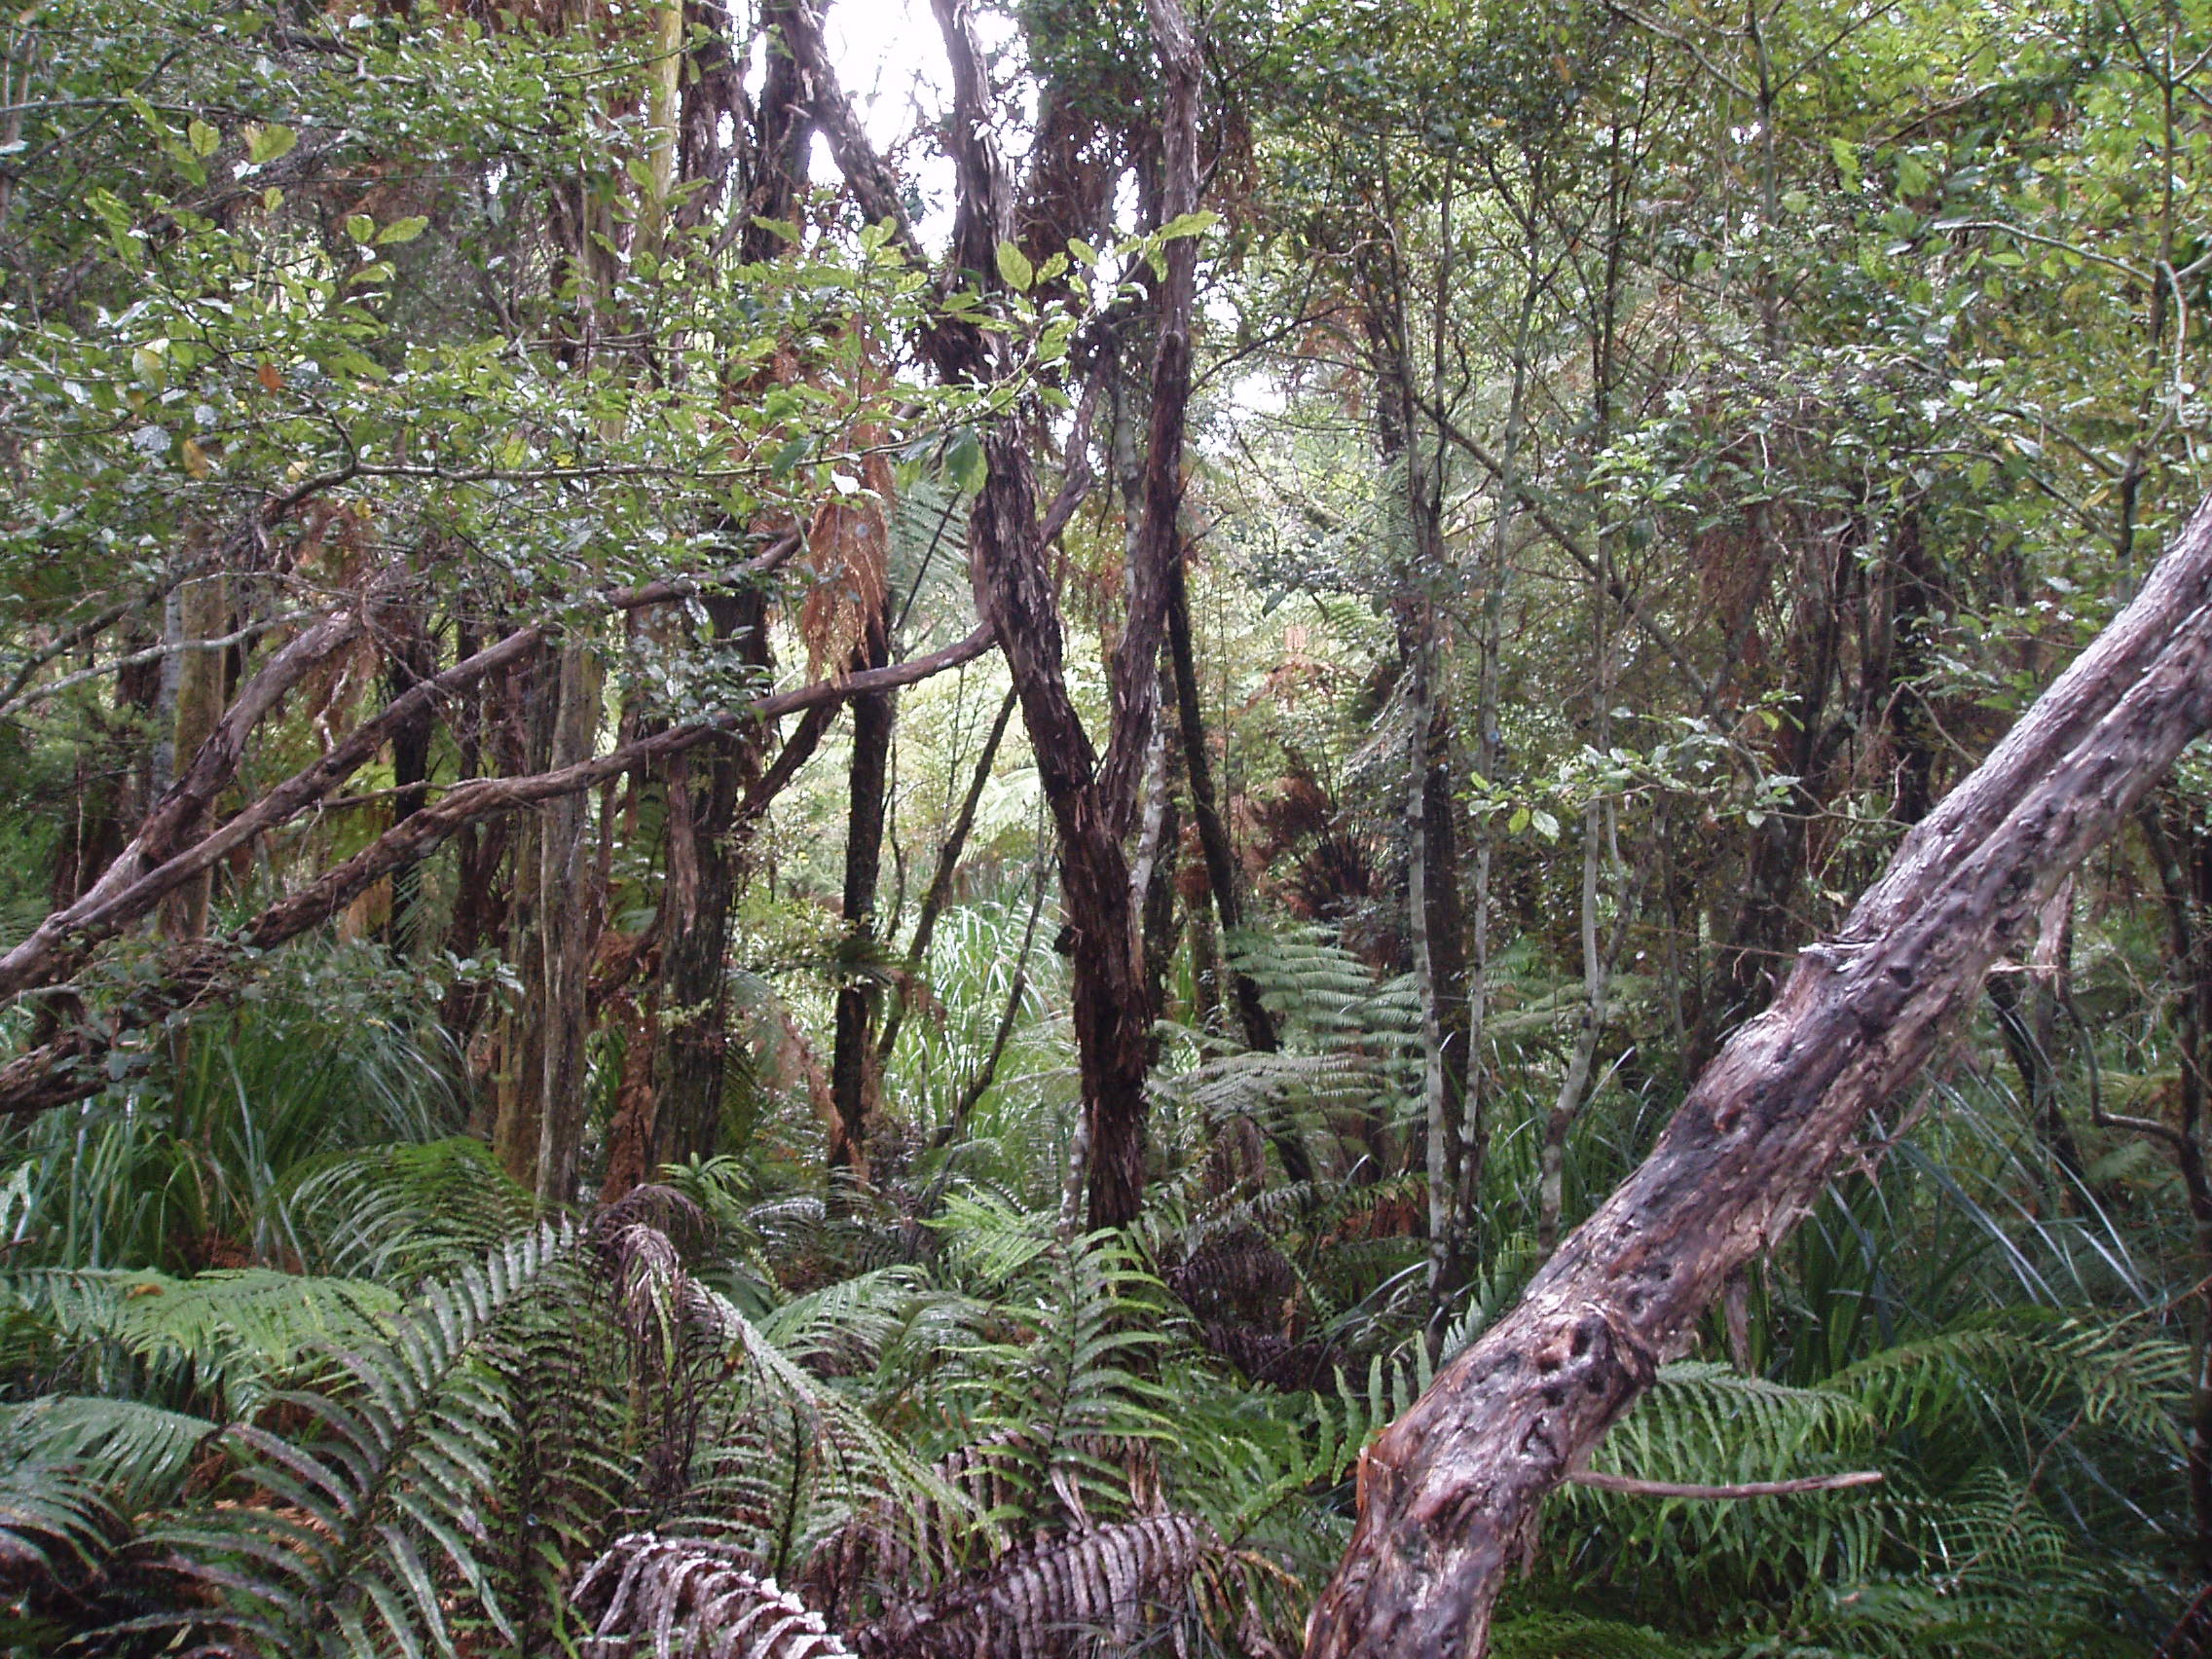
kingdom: Plantae
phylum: Tracheophyta
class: Liliopsida
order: Poales
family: Cyperaceae
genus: Machaerina
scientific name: Machaerina tenax
